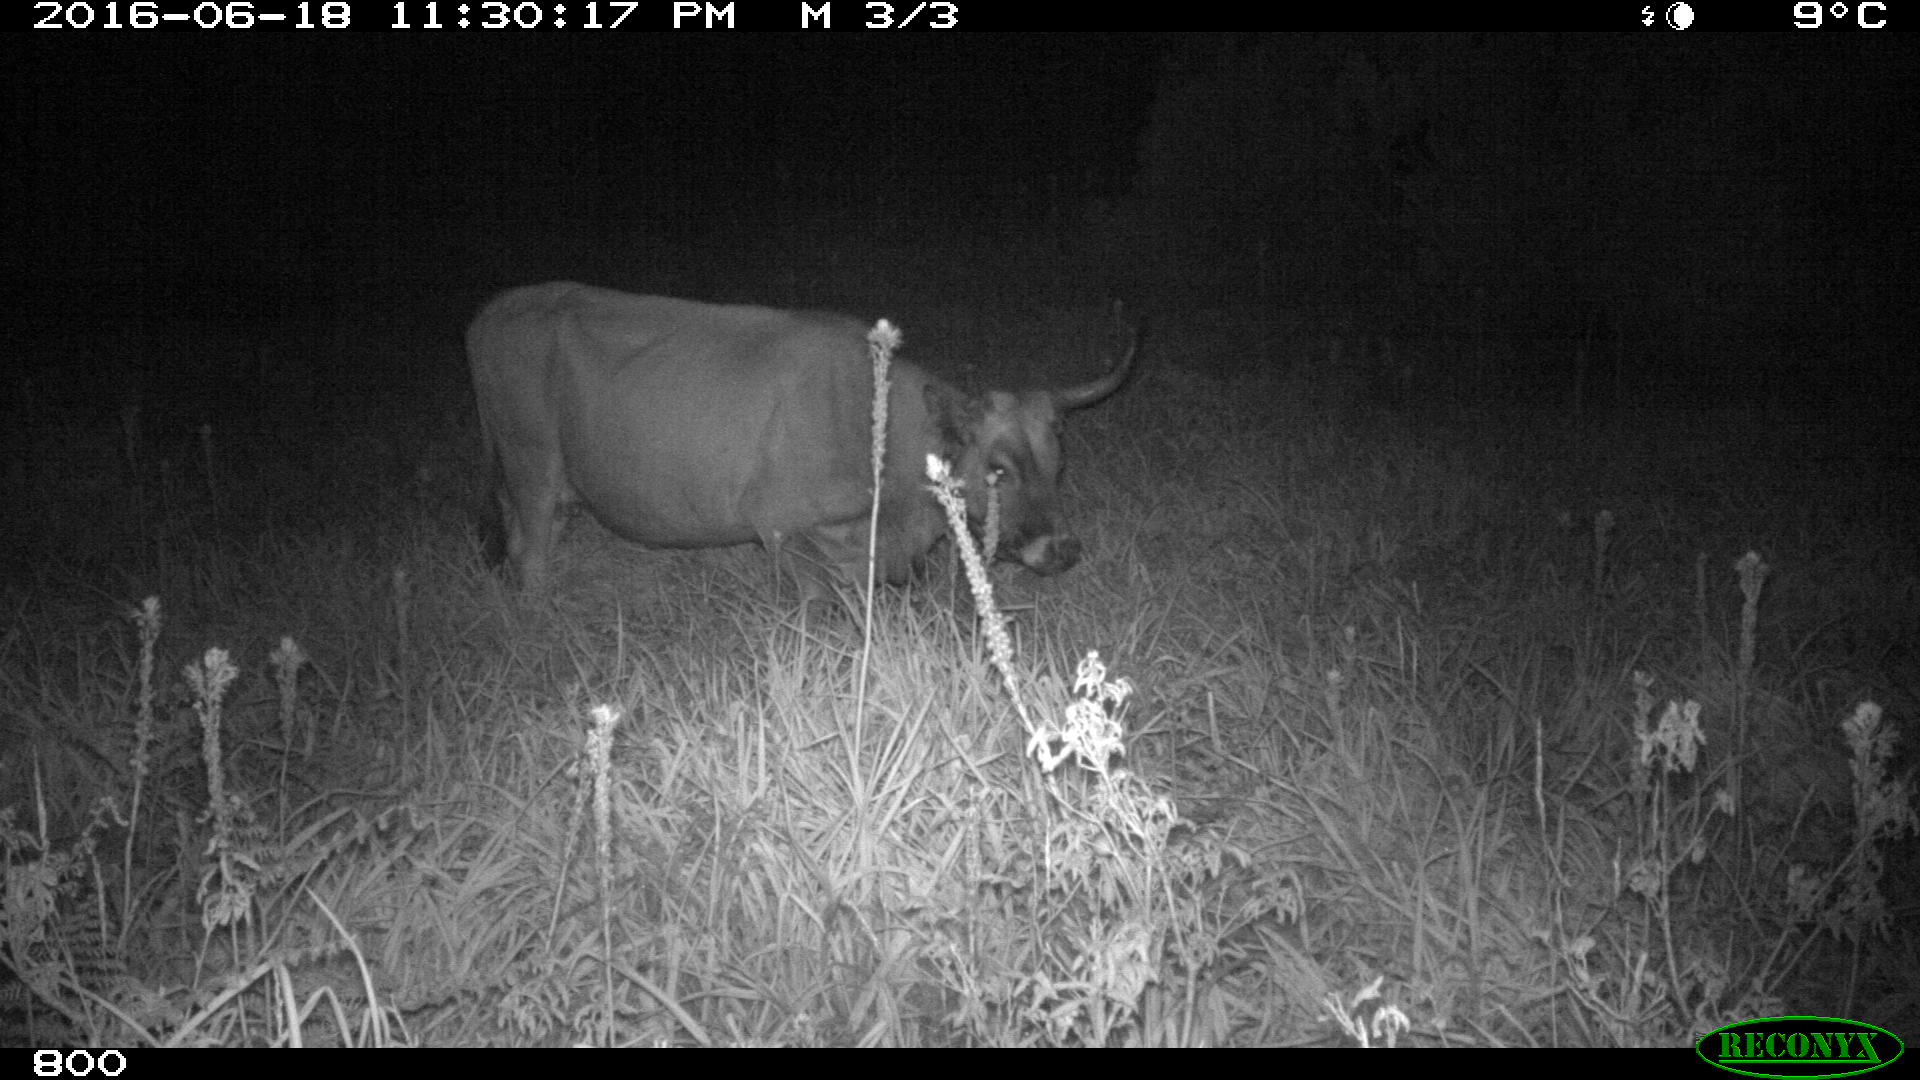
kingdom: Animalia
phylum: Chordata
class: Mammalia
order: Artiodactyla
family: Bovidae
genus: Bos
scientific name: Bos taurus
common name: Domesticated cattle
